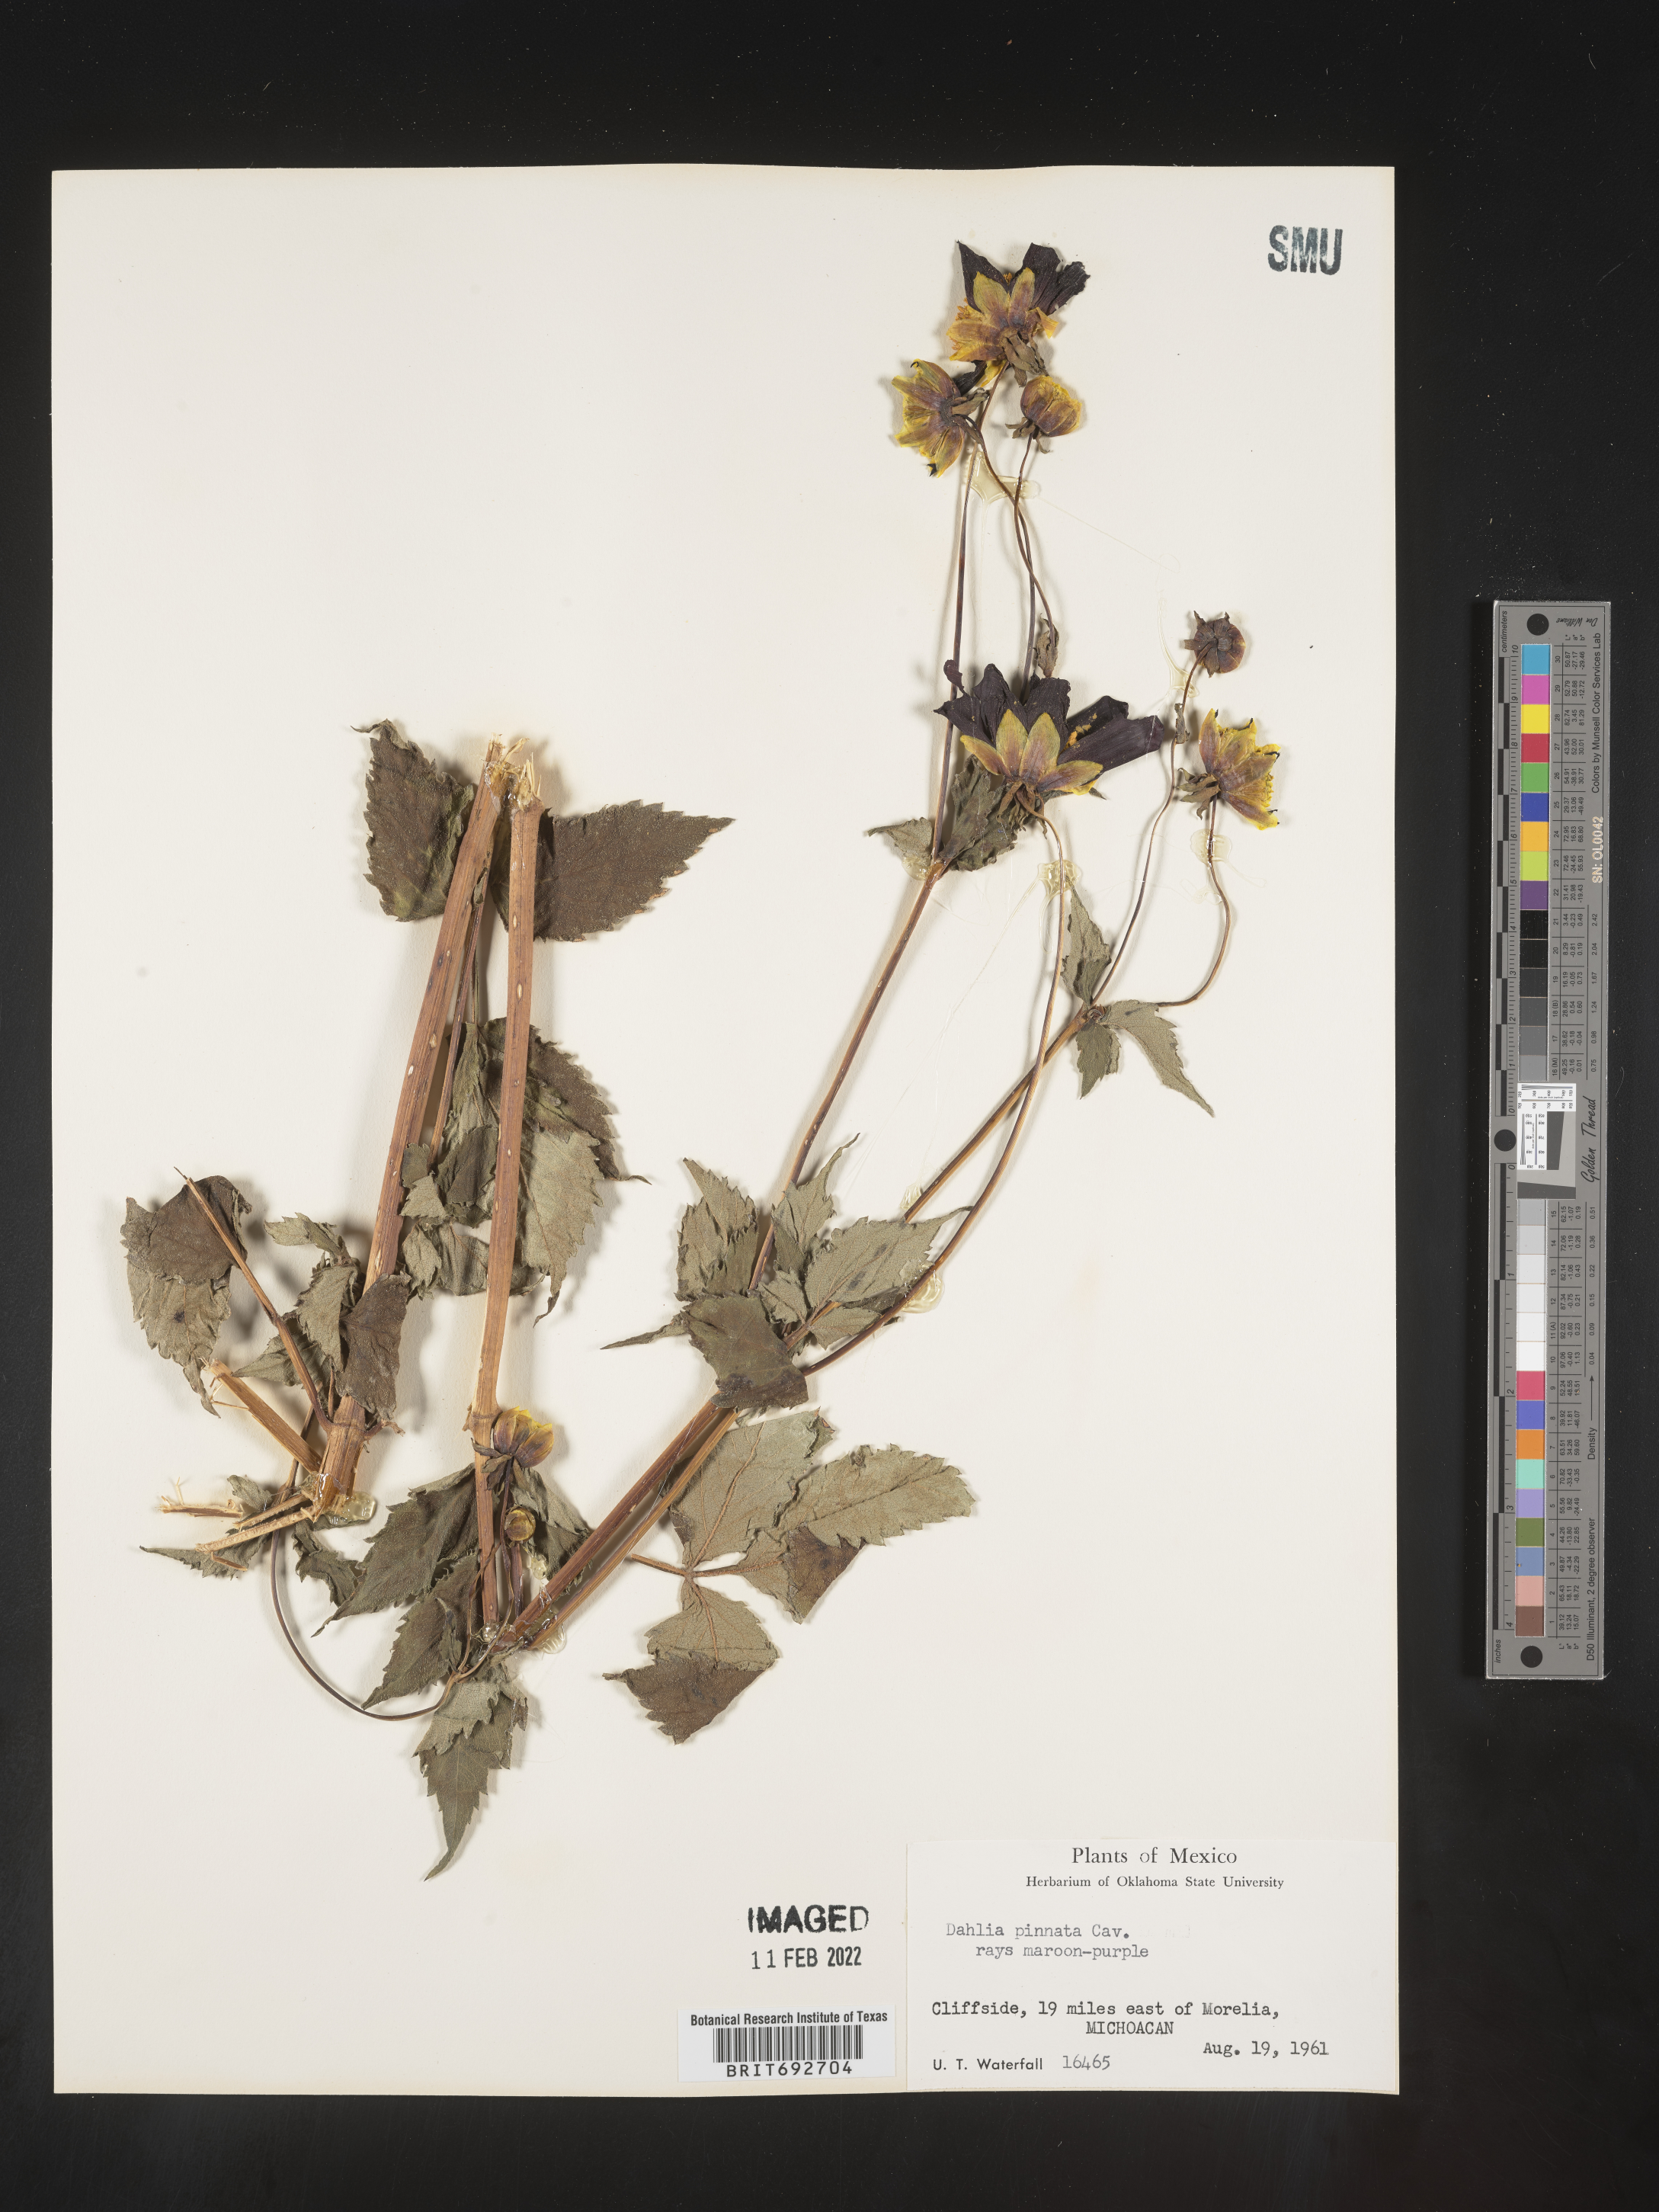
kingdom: Plantae
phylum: Tracheophyta
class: Magnoliopsida
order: Asterales
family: Asteraceae
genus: Dahlia
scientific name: Dahlia
